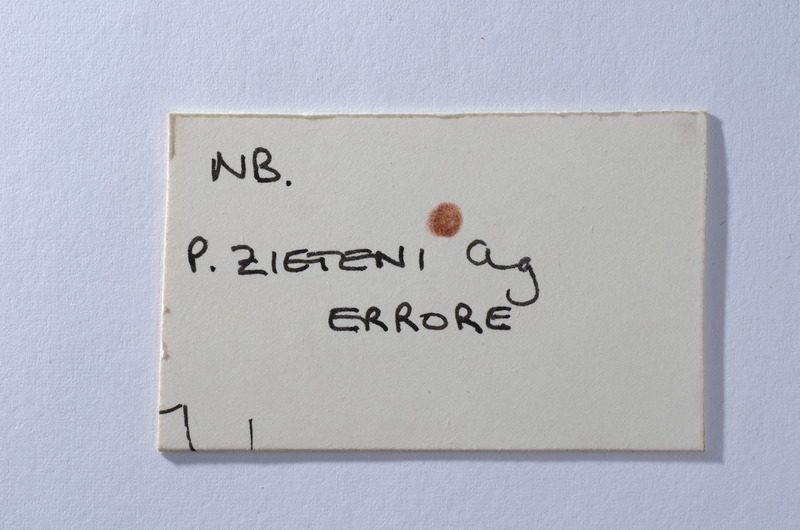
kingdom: Animalia
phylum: Chordata
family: Macrosemiidae
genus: Propterus
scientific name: Propterus microstomus
